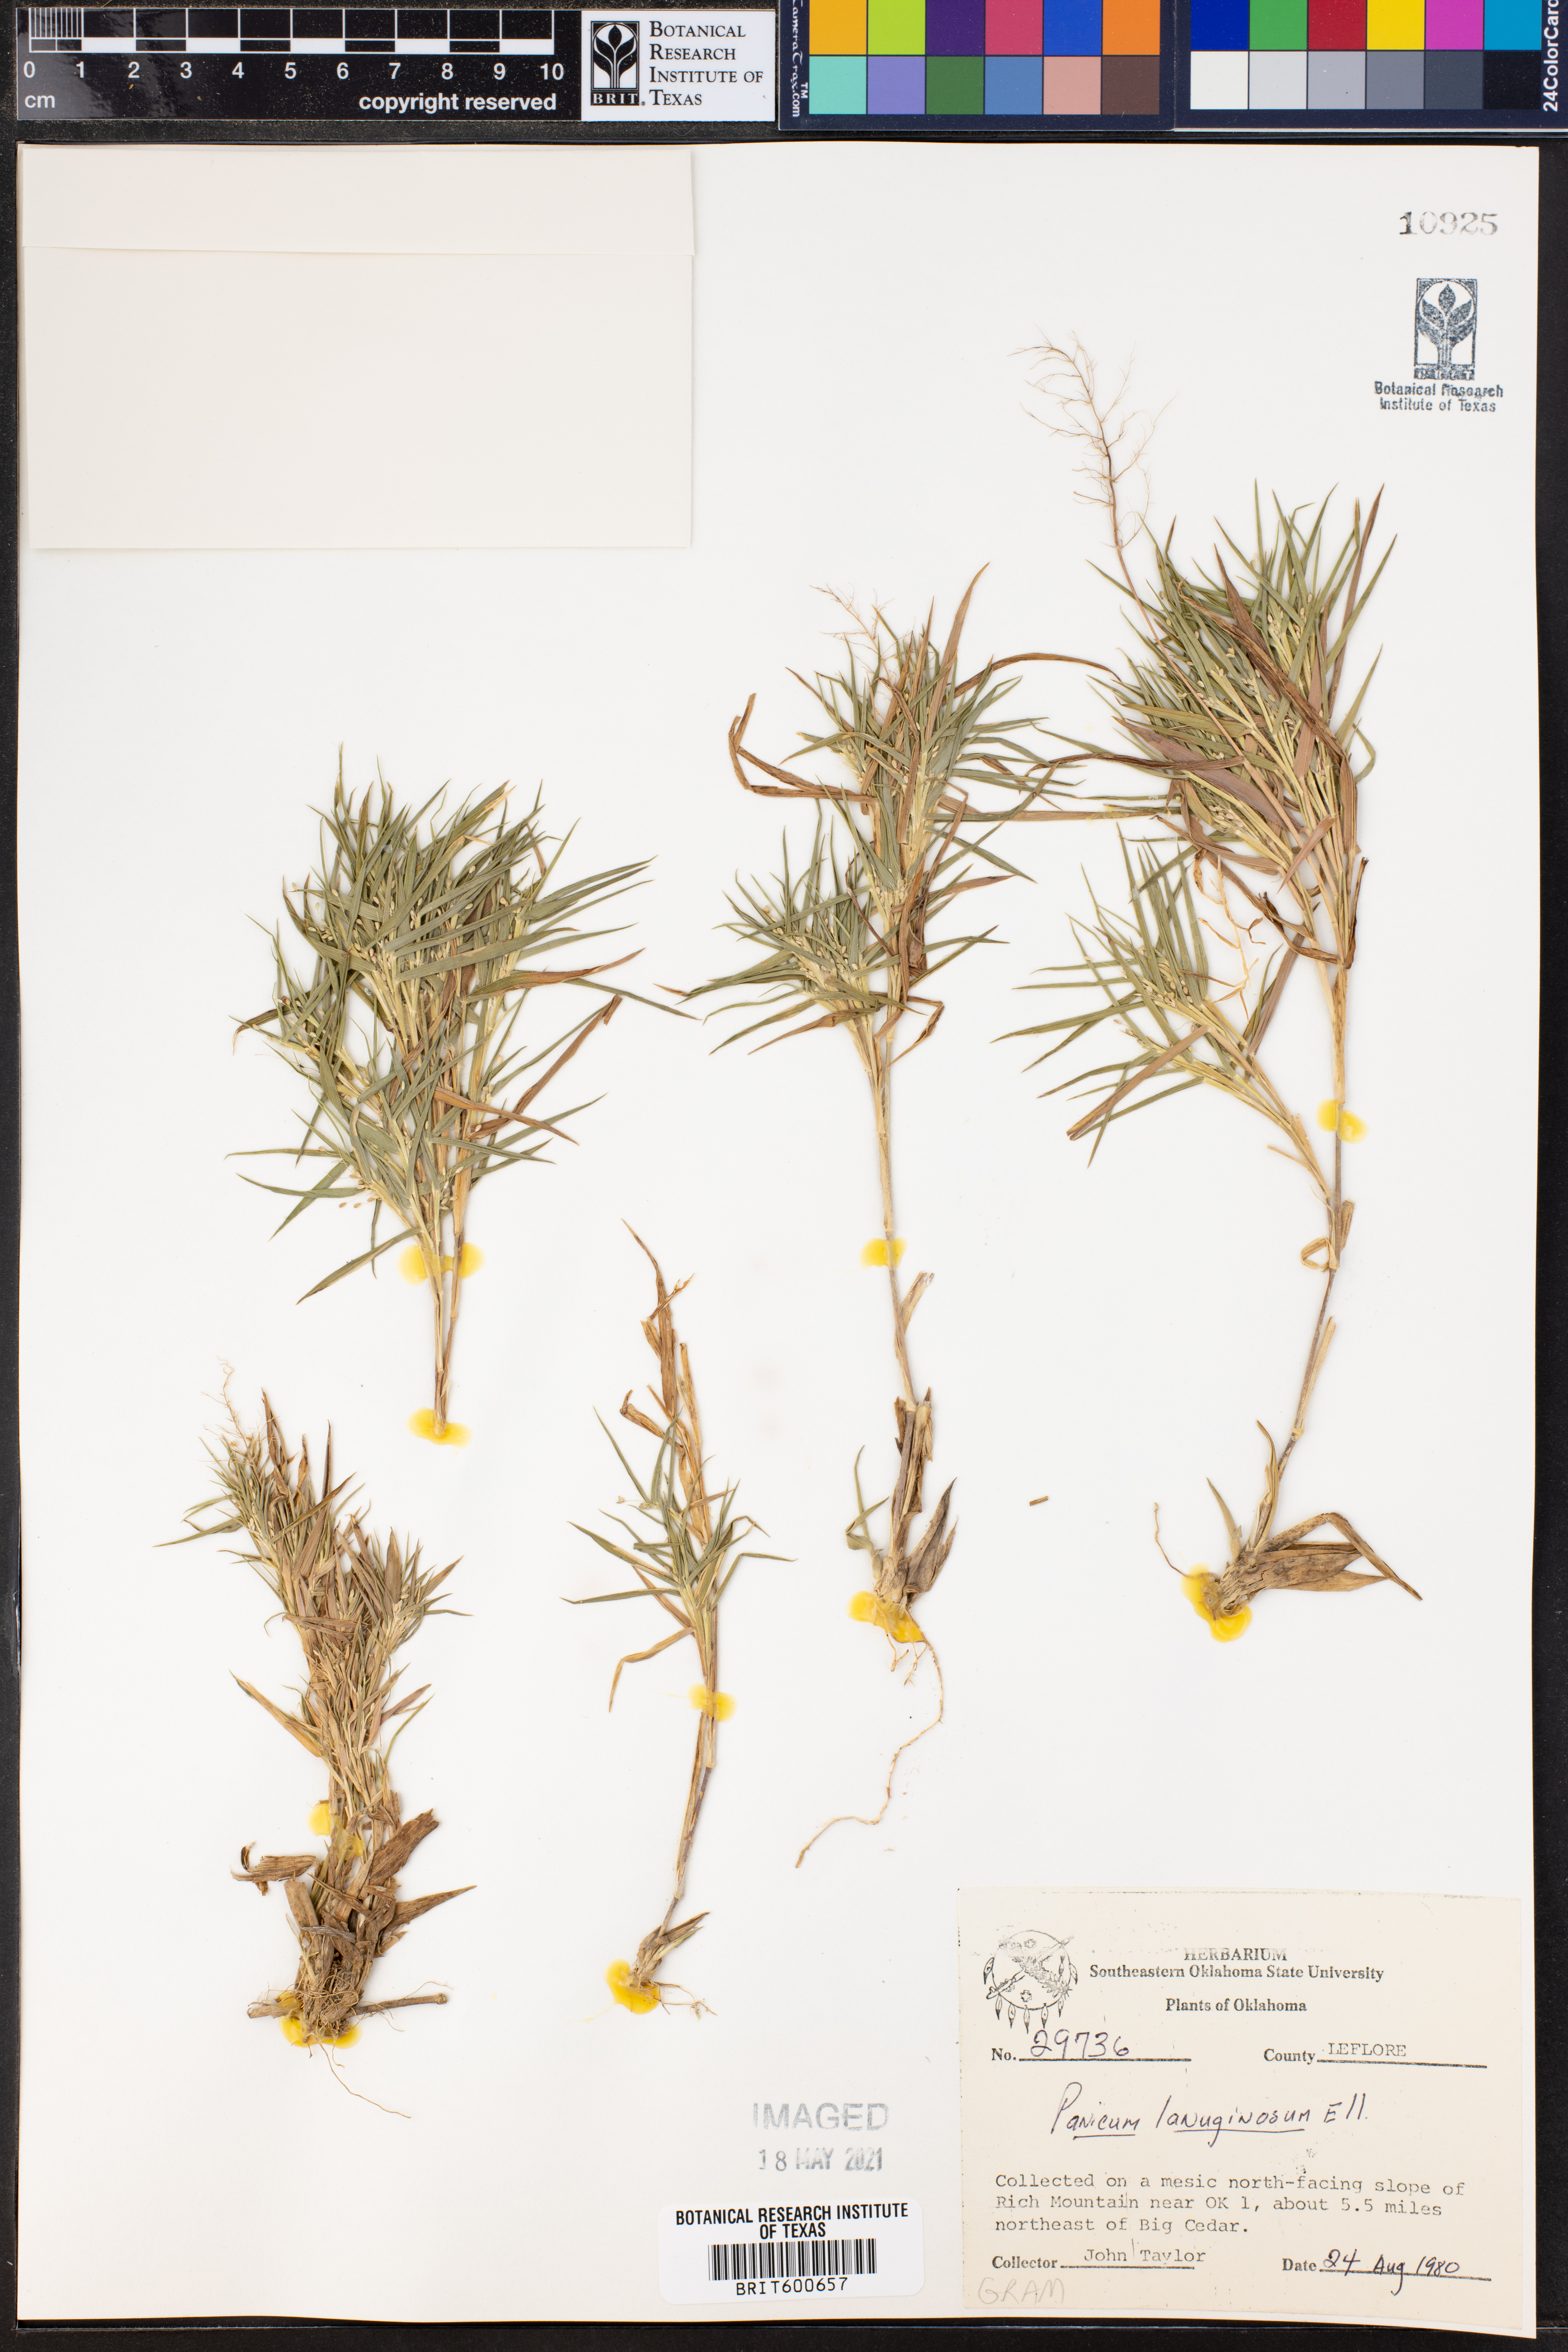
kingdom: Plantae
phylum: Tracheophyta
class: Liliopsida
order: Poales
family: Poaceae
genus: Dichanthelium
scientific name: Dichanthelium lanuginosum
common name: Woolly panicgrass
